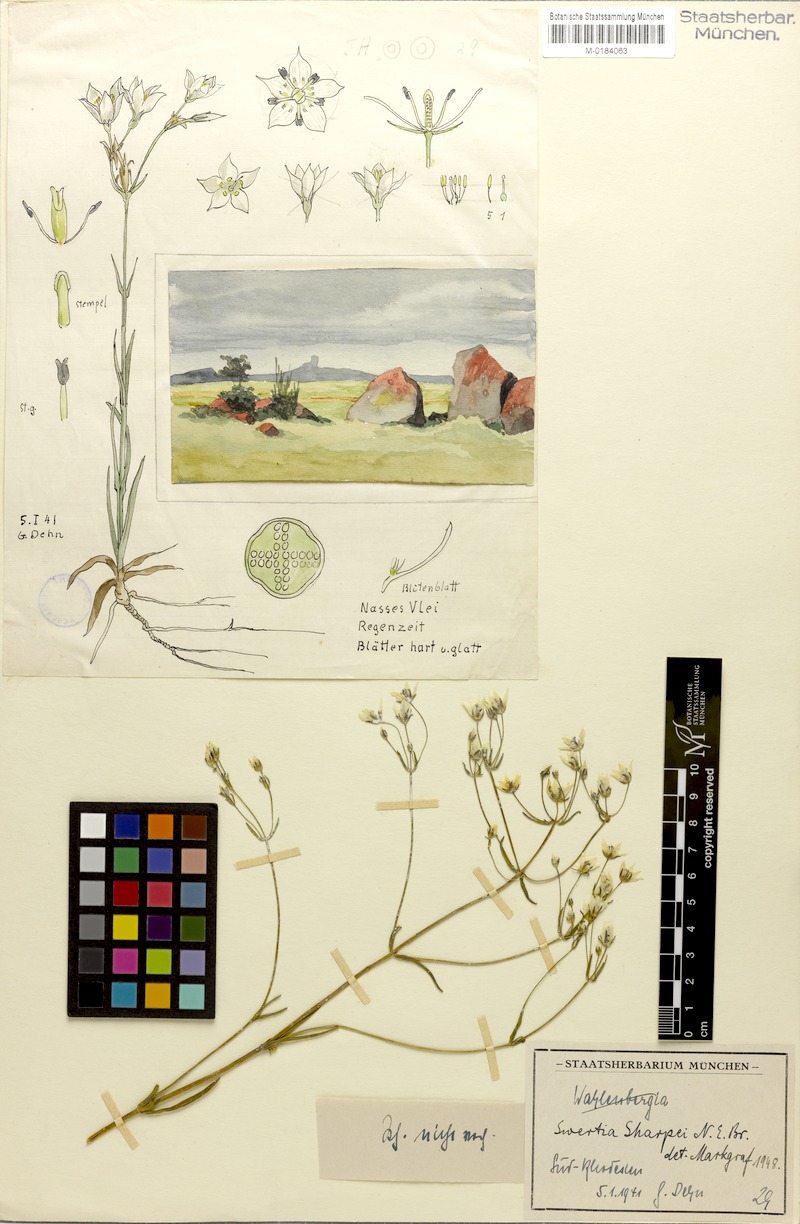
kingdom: Plantae
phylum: Tracheophyta
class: Magnoliopsida
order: Gentianales
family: Gentianaceae
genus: Swertia
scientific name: Swertia welwitschii
